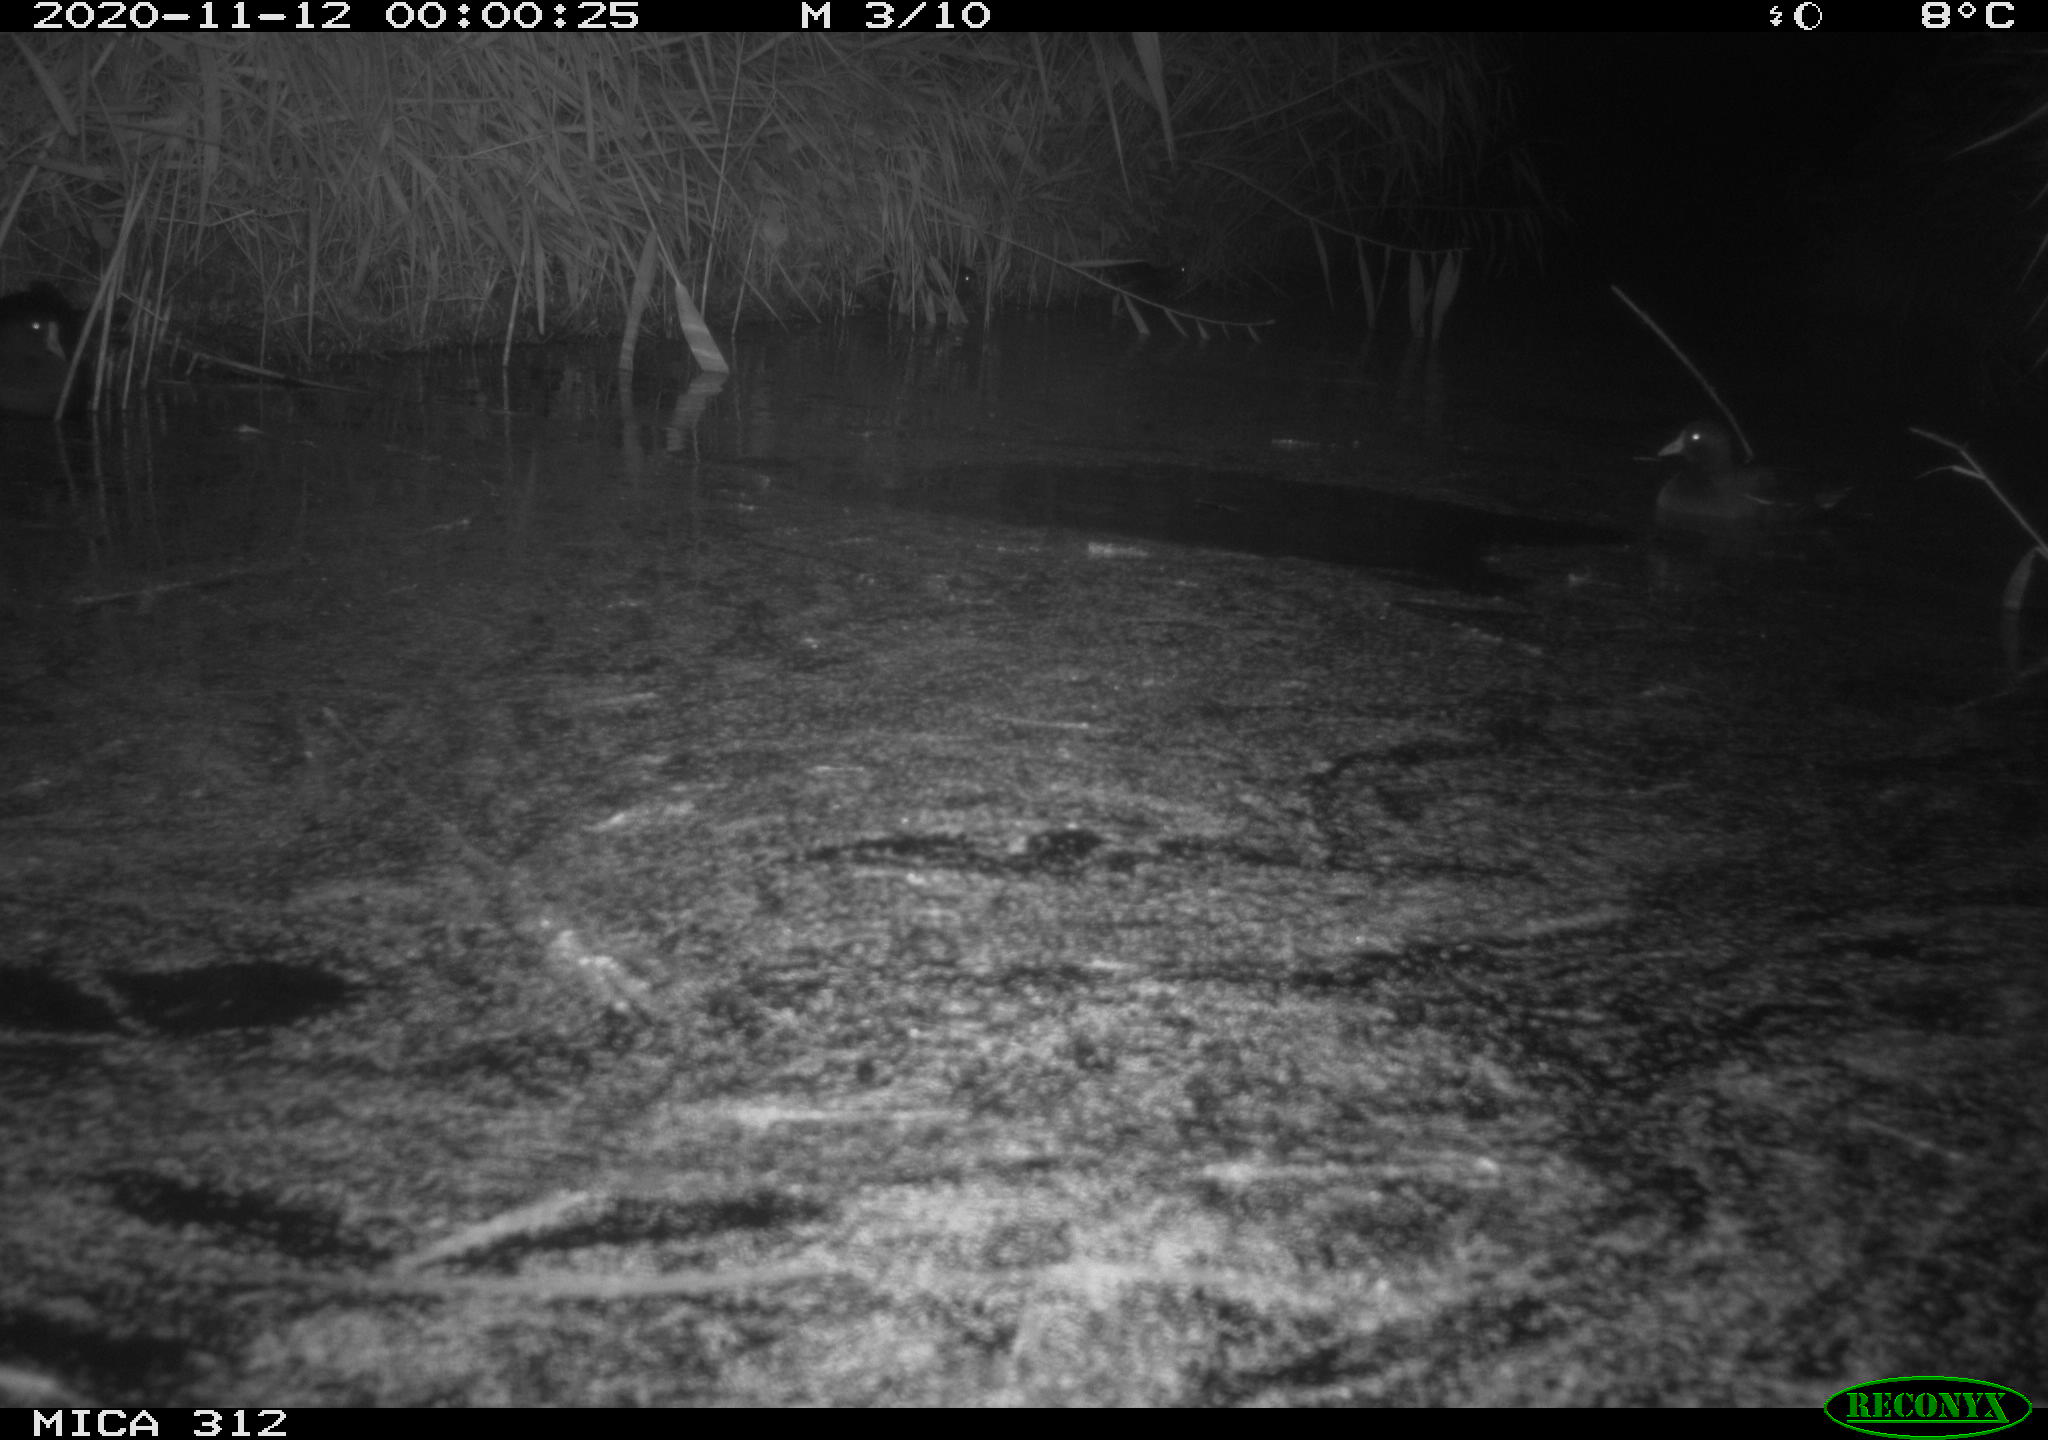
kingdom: Animalia
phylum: Chordata
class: Aves
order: Gruiformes
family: Rallidae
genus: Fulica
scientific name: Fulica atra
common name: Eurasian coot
